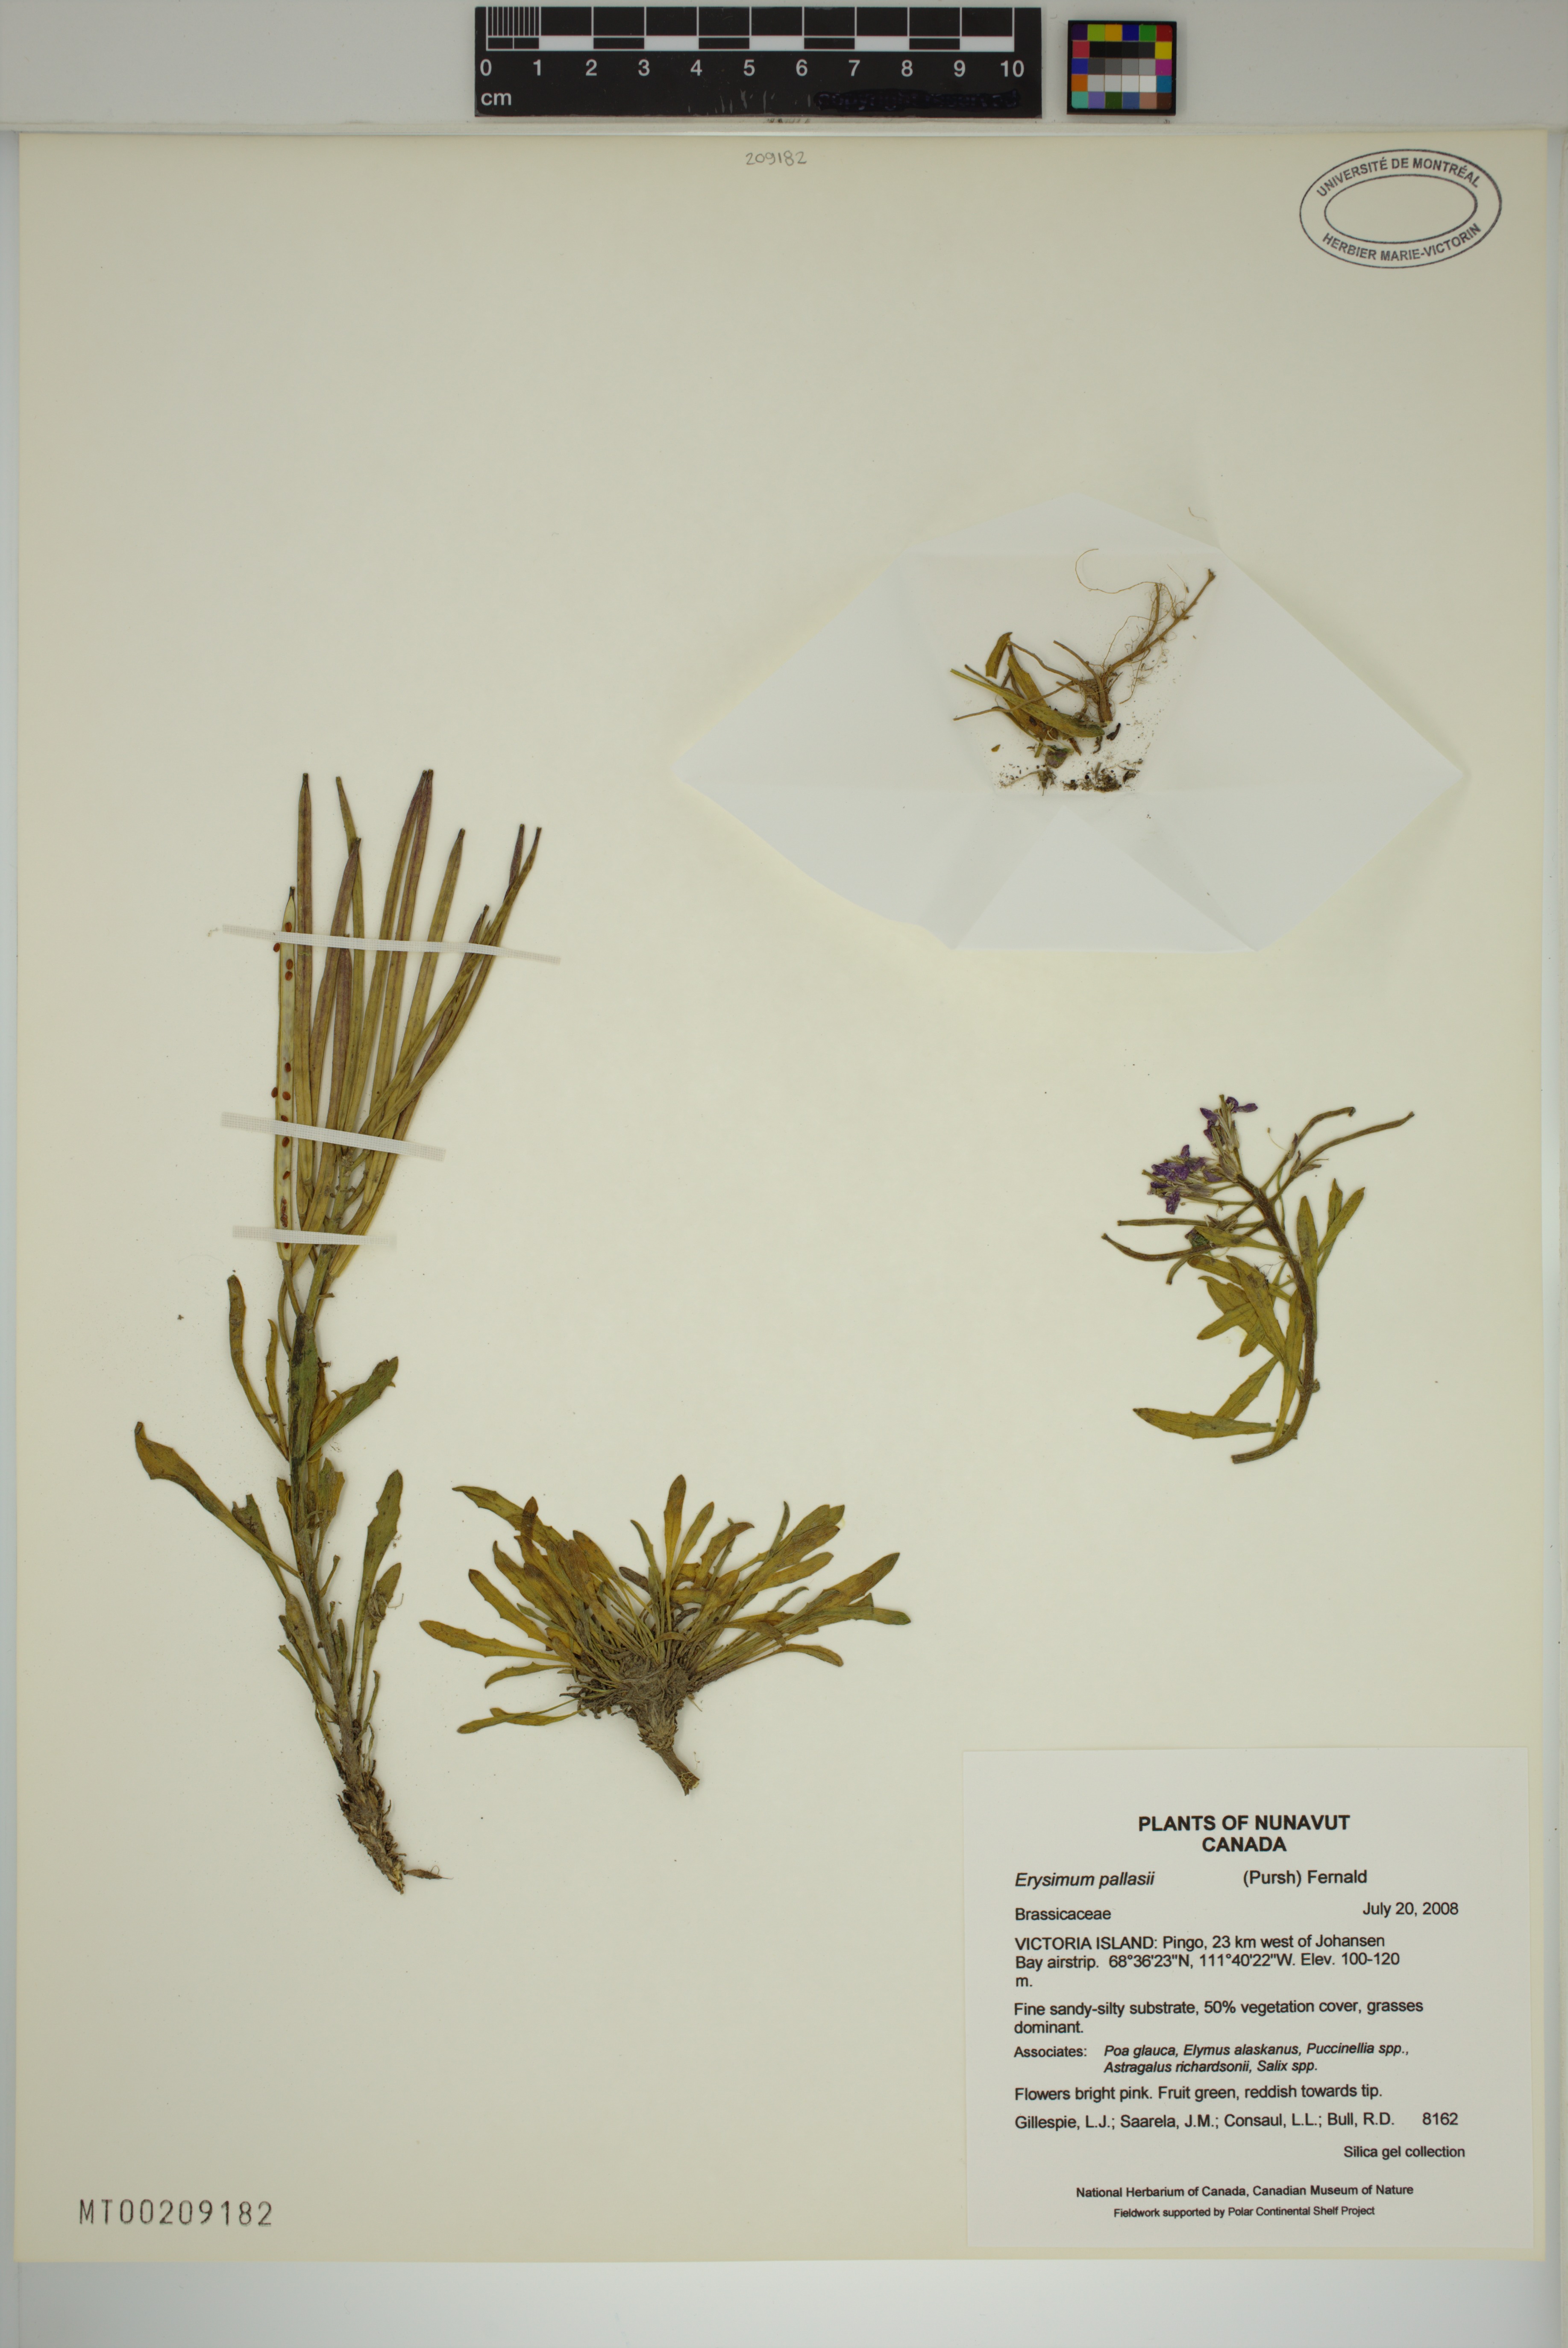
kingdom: Plantae
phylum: Tracheophyta
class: Magnoliopsida
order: Brassicales
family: Brassicaceae
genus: Erysimum
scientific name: Erysimum pallasii
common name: Pallas' wallflower
